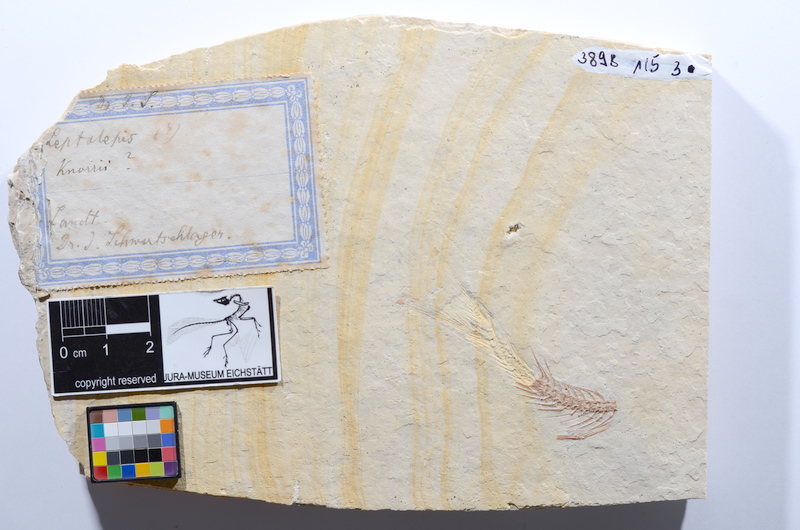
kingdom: Animalia
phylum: Chordata
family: Ascalaboidae
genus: Tharsis
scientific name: Tharsis dubius
